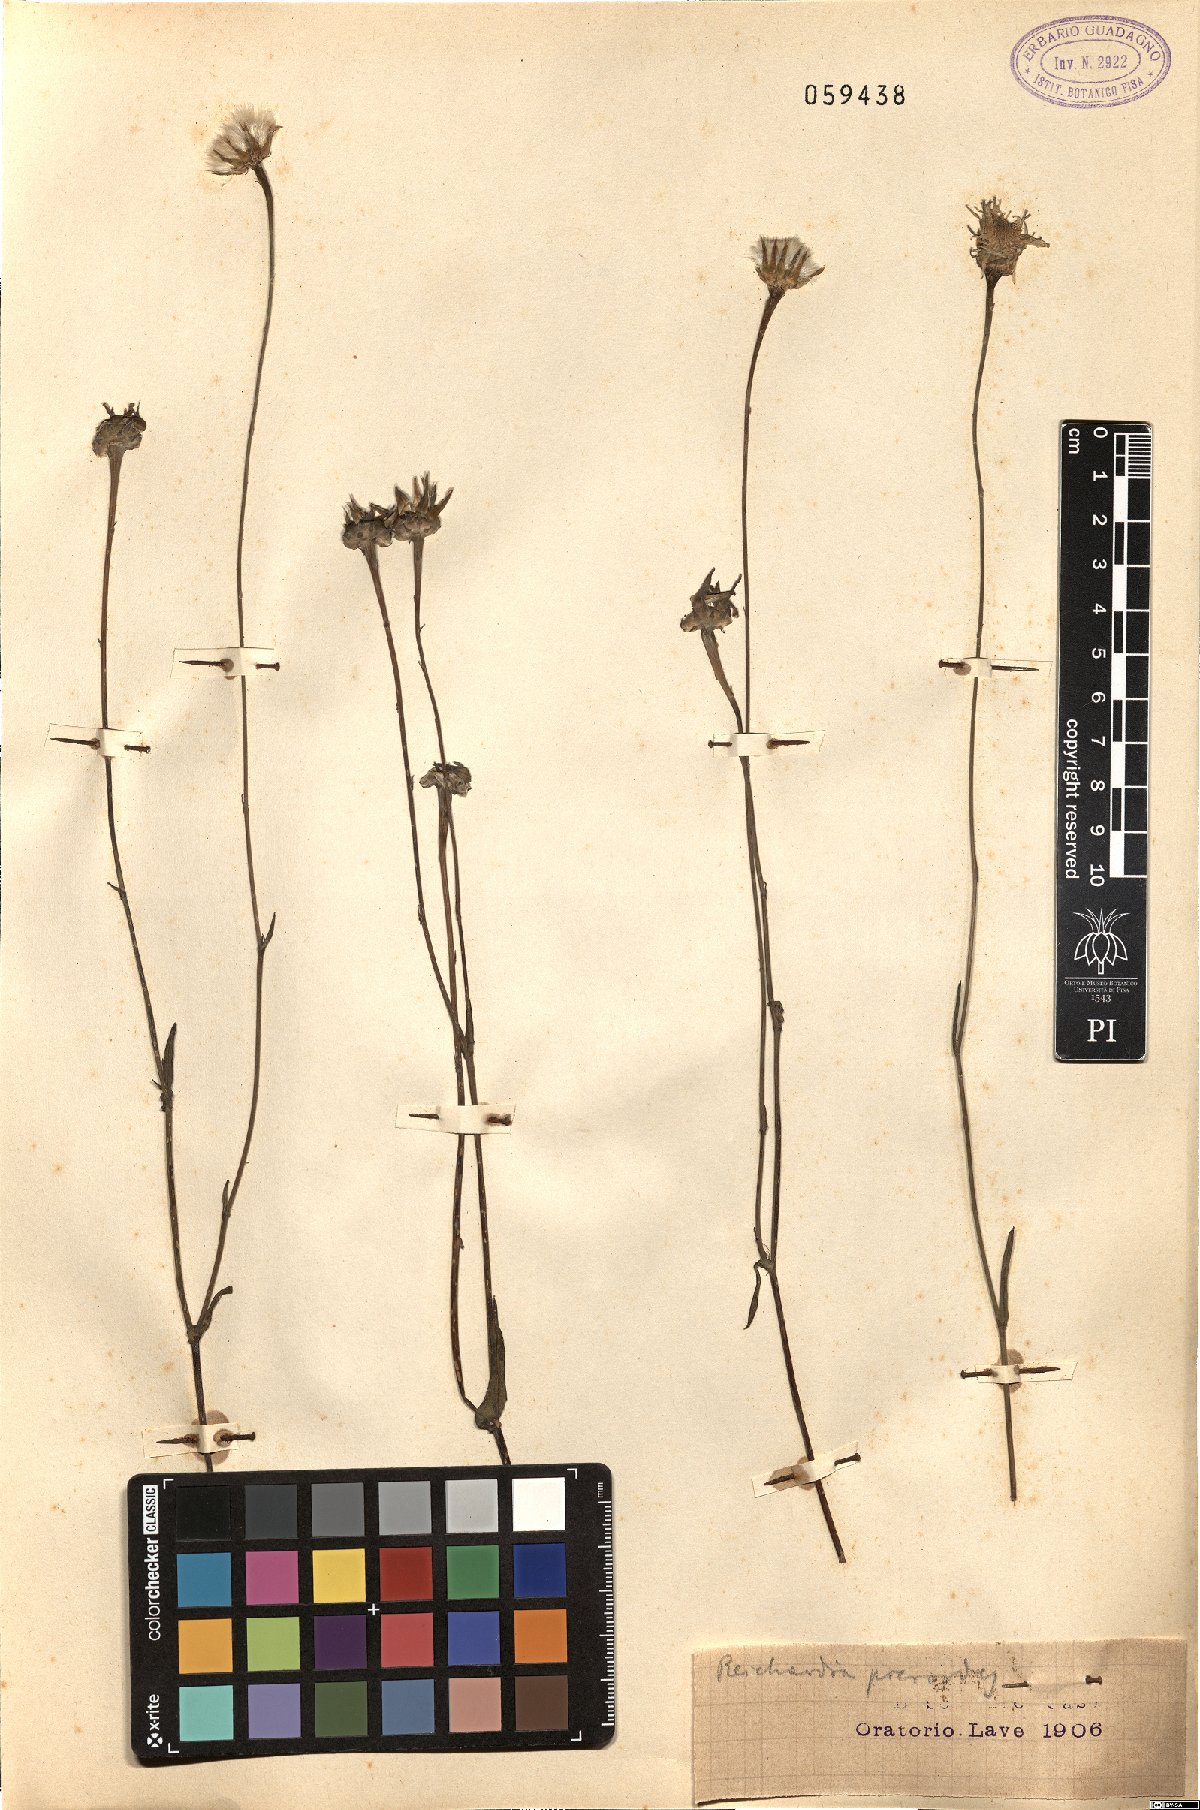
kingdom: Plantae
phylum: Tracheophyta
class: Magnoliopsida
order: Asterales
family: Asteraceae
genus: Reichardia
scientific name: Reichardia picroides
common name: Common brighteyes
